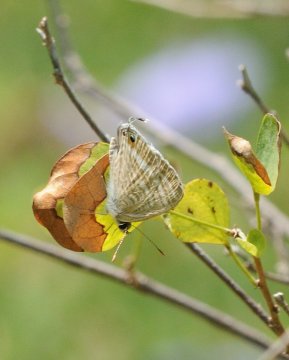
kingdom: Animalia
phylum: Arthropoda
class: Insecta
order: Lepidoptera
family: Lycaenidae
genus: Lampides
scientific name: Lampides boeticus
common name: Pea Blue
